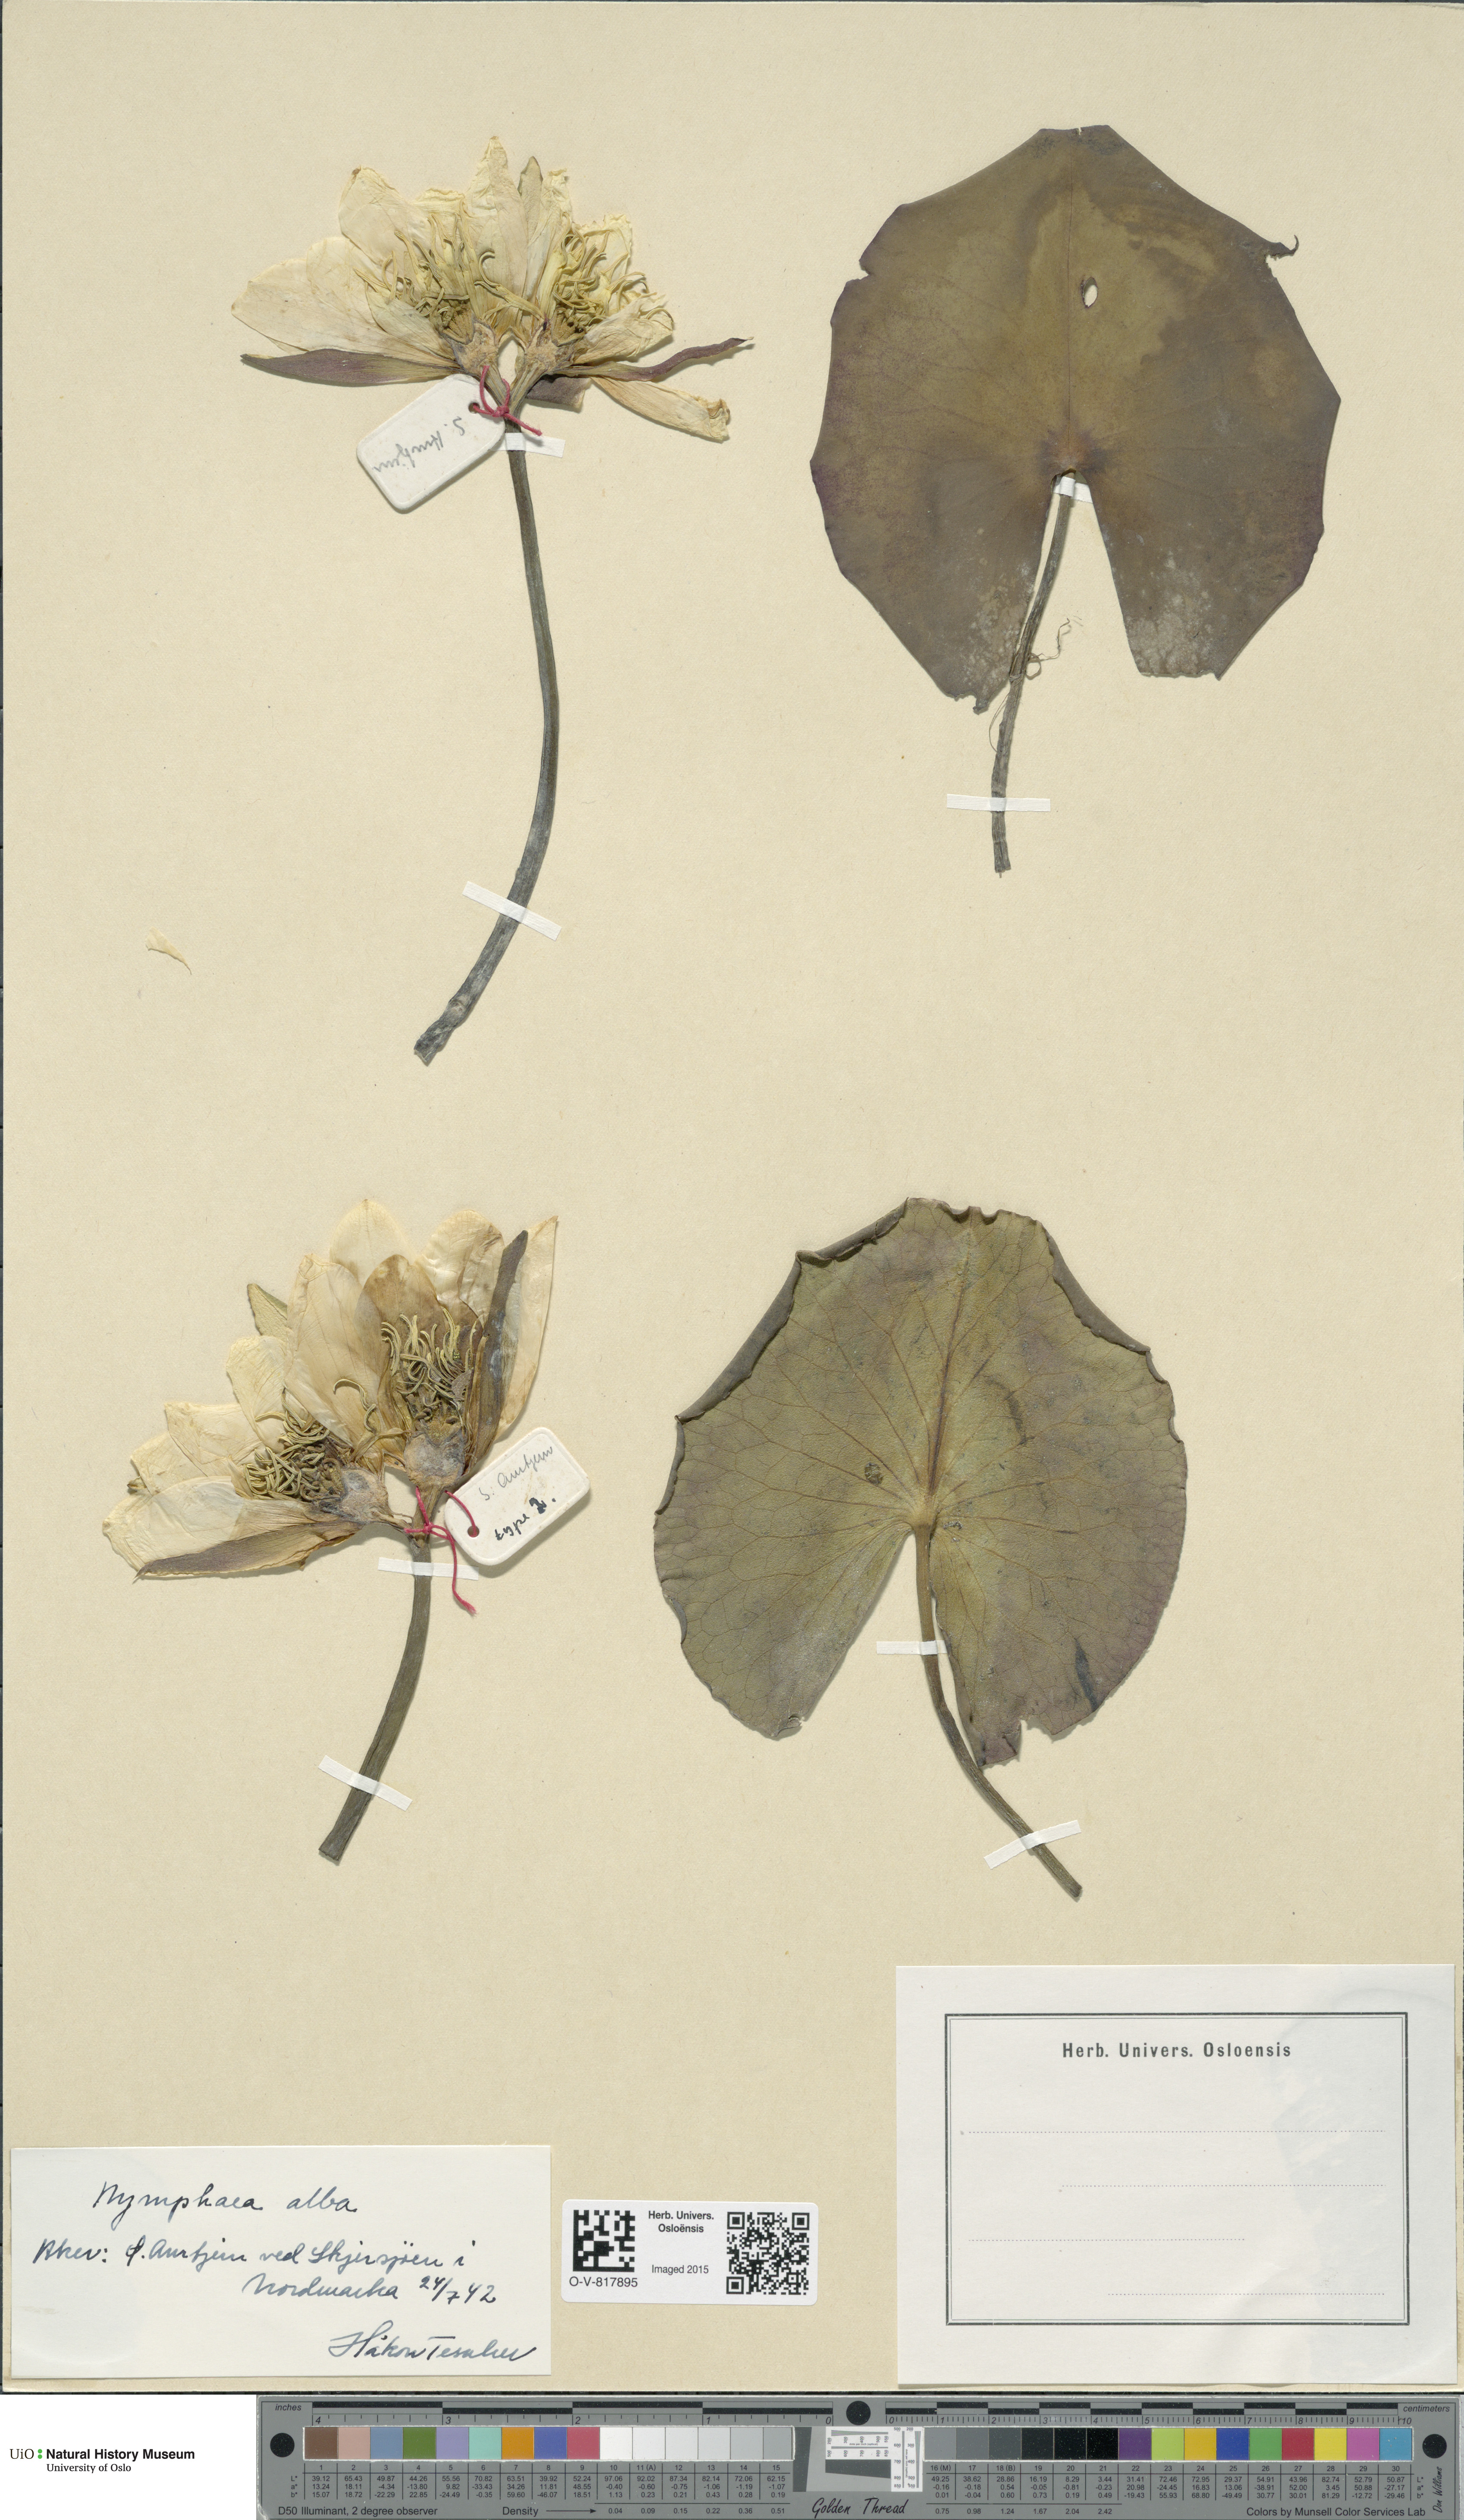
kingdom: Plantae
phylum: Tracheophyta
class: Magnoliopsida
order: Nymphaeales
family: Nymphaeaceae
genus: Nymphaea
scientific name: Nymphaea alba
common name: White water-lily
